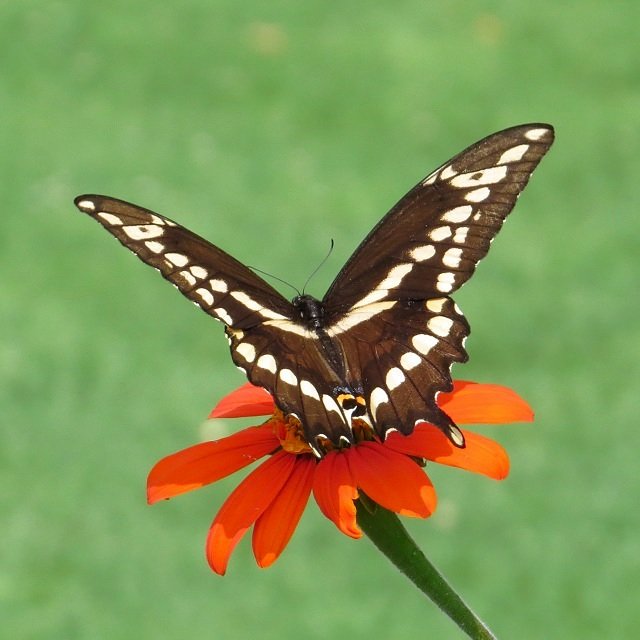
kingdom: Animalia
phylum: Arthropoda
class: Insecta
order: Lepidoptera
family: Papilionidae
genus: Papilio
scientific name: Papilio cresphontes
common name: Eastern Giant Swallowtail
